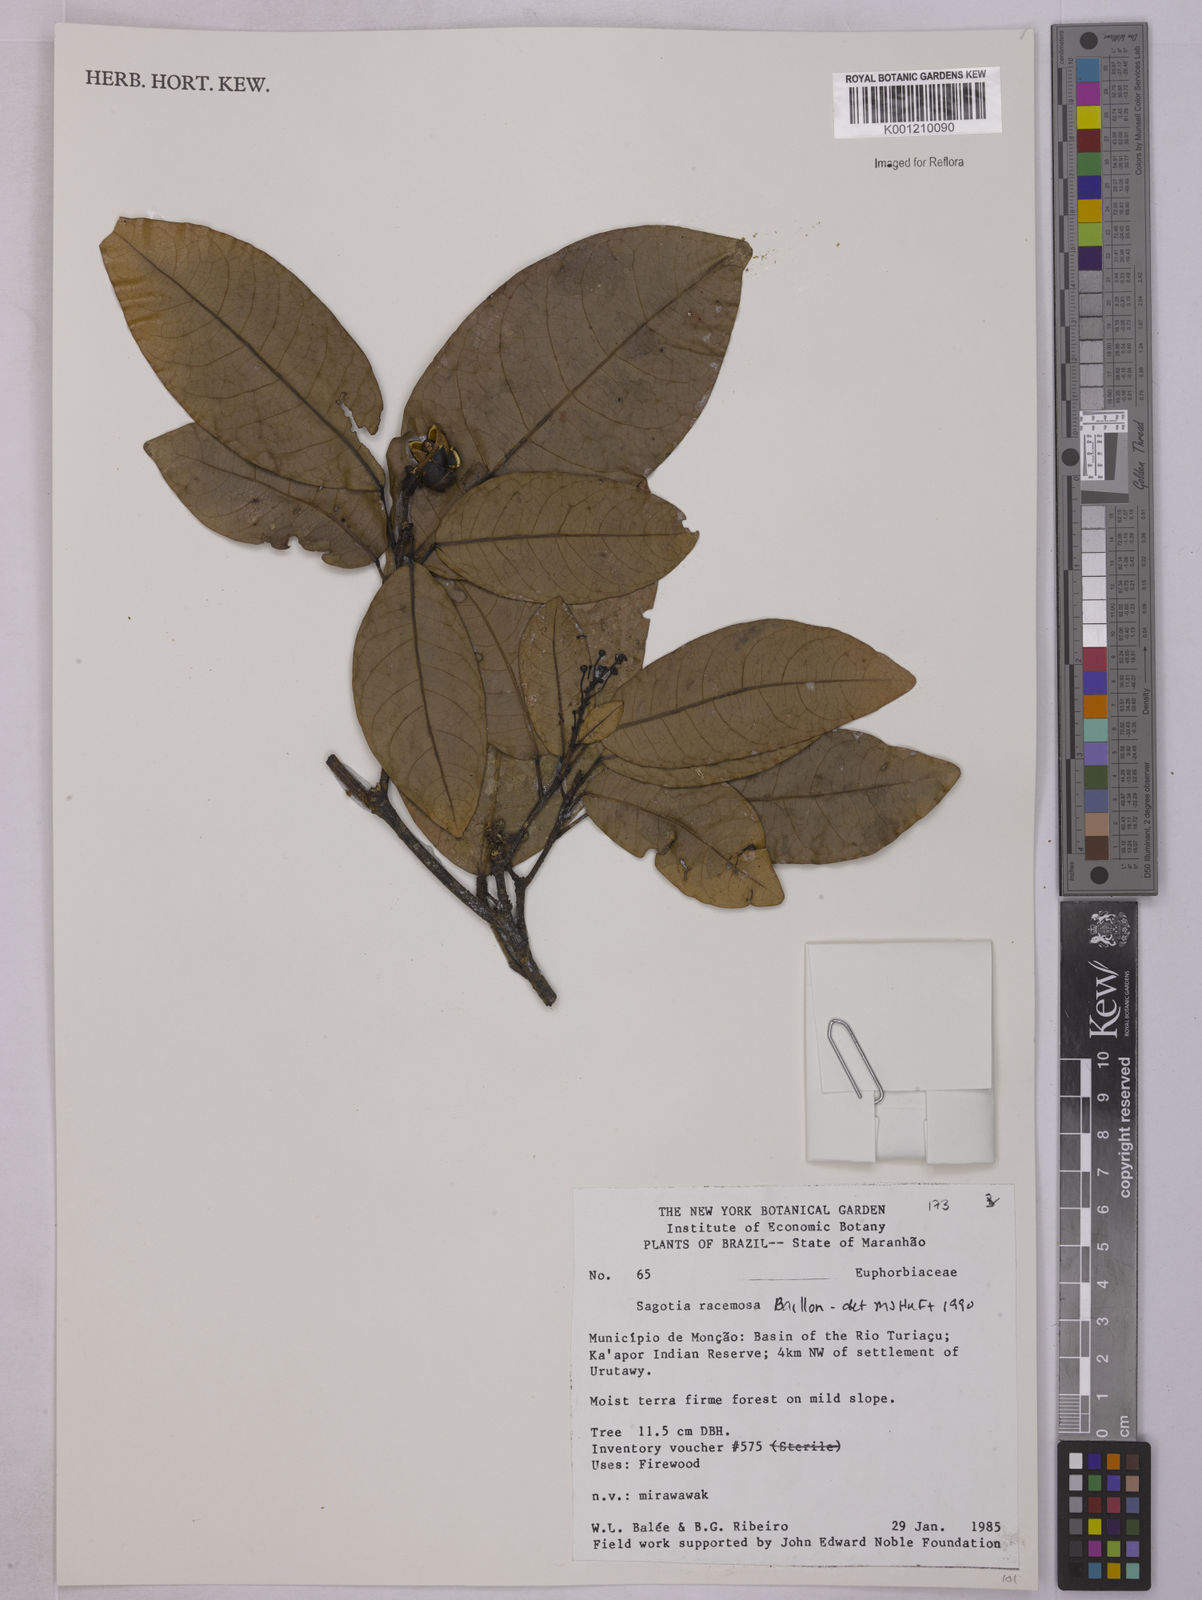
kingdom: Plantae
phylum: Tracheophyta
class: Magnoliopsida
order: Malpighiales
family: Euphorbiaceae
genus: Sagotia
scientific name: Sagotia racemosa
